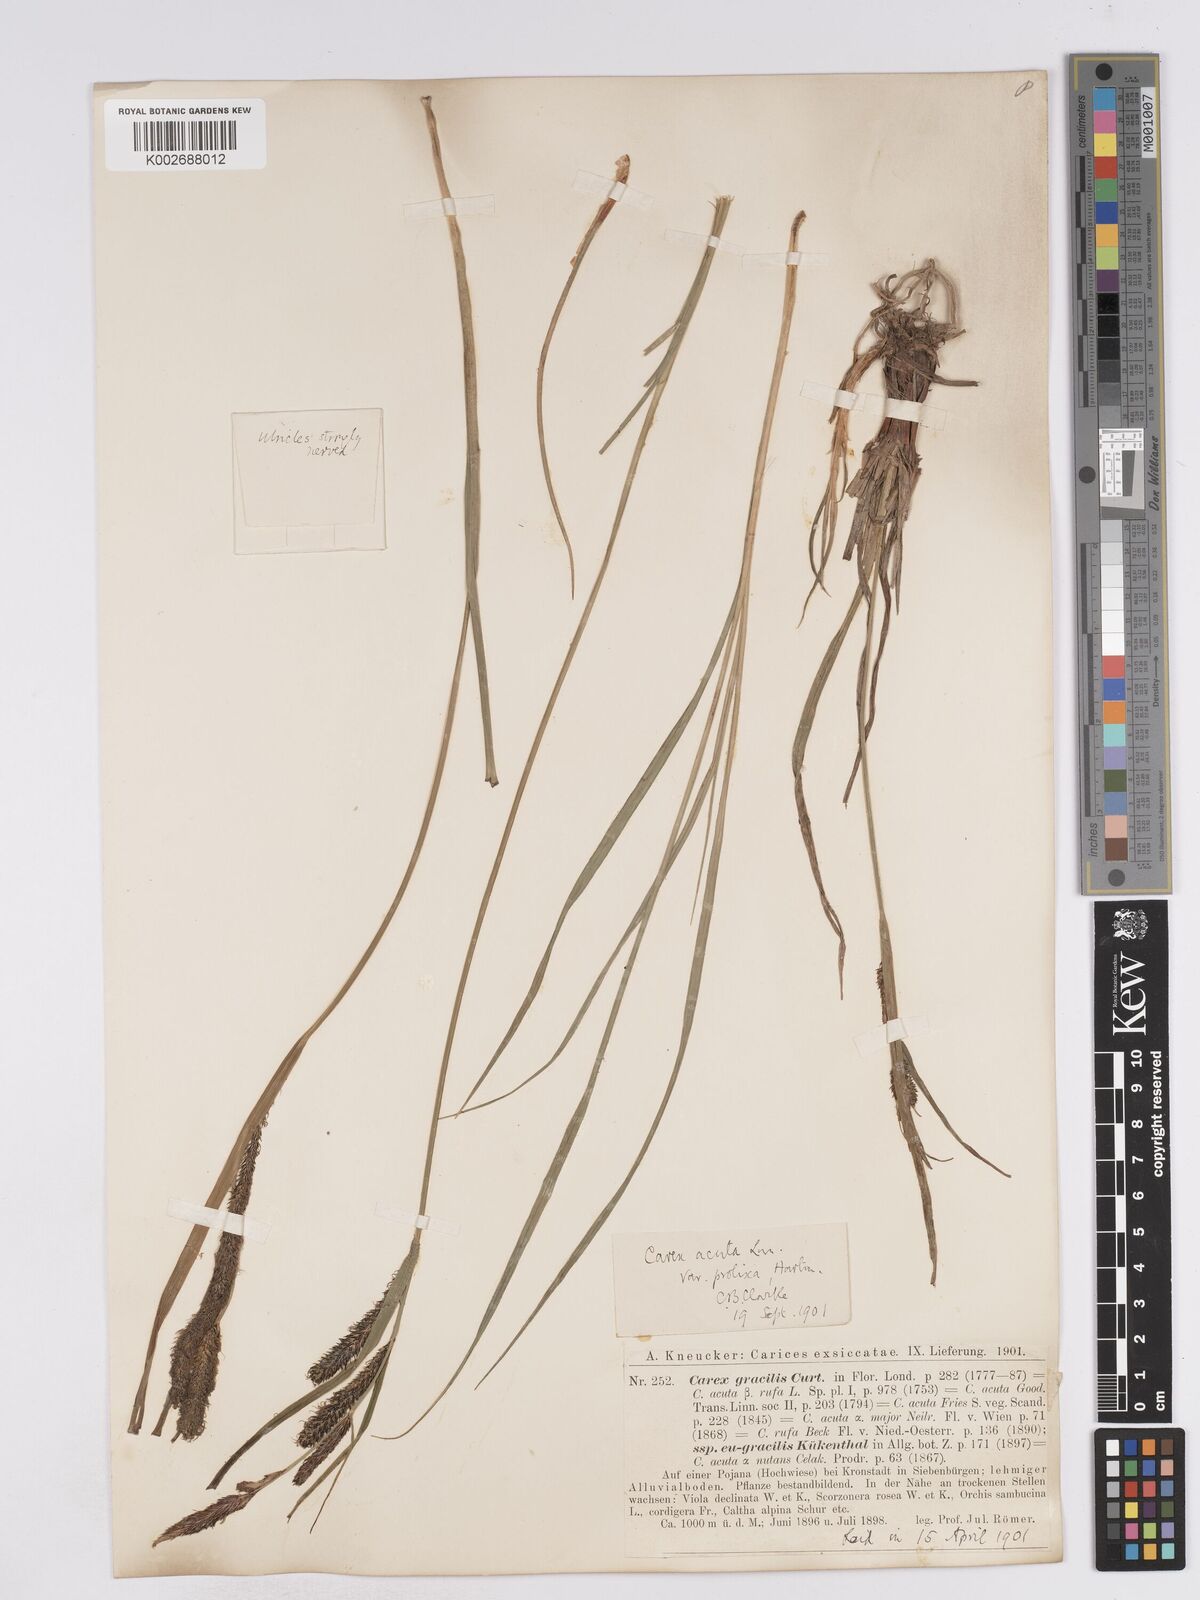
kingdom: Plantae
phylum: Tracheophyta
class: Liliopsida
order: Poales
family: Cyperaceae
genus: Carex
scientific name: Carex acuta
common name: Slender tufted-sedge
